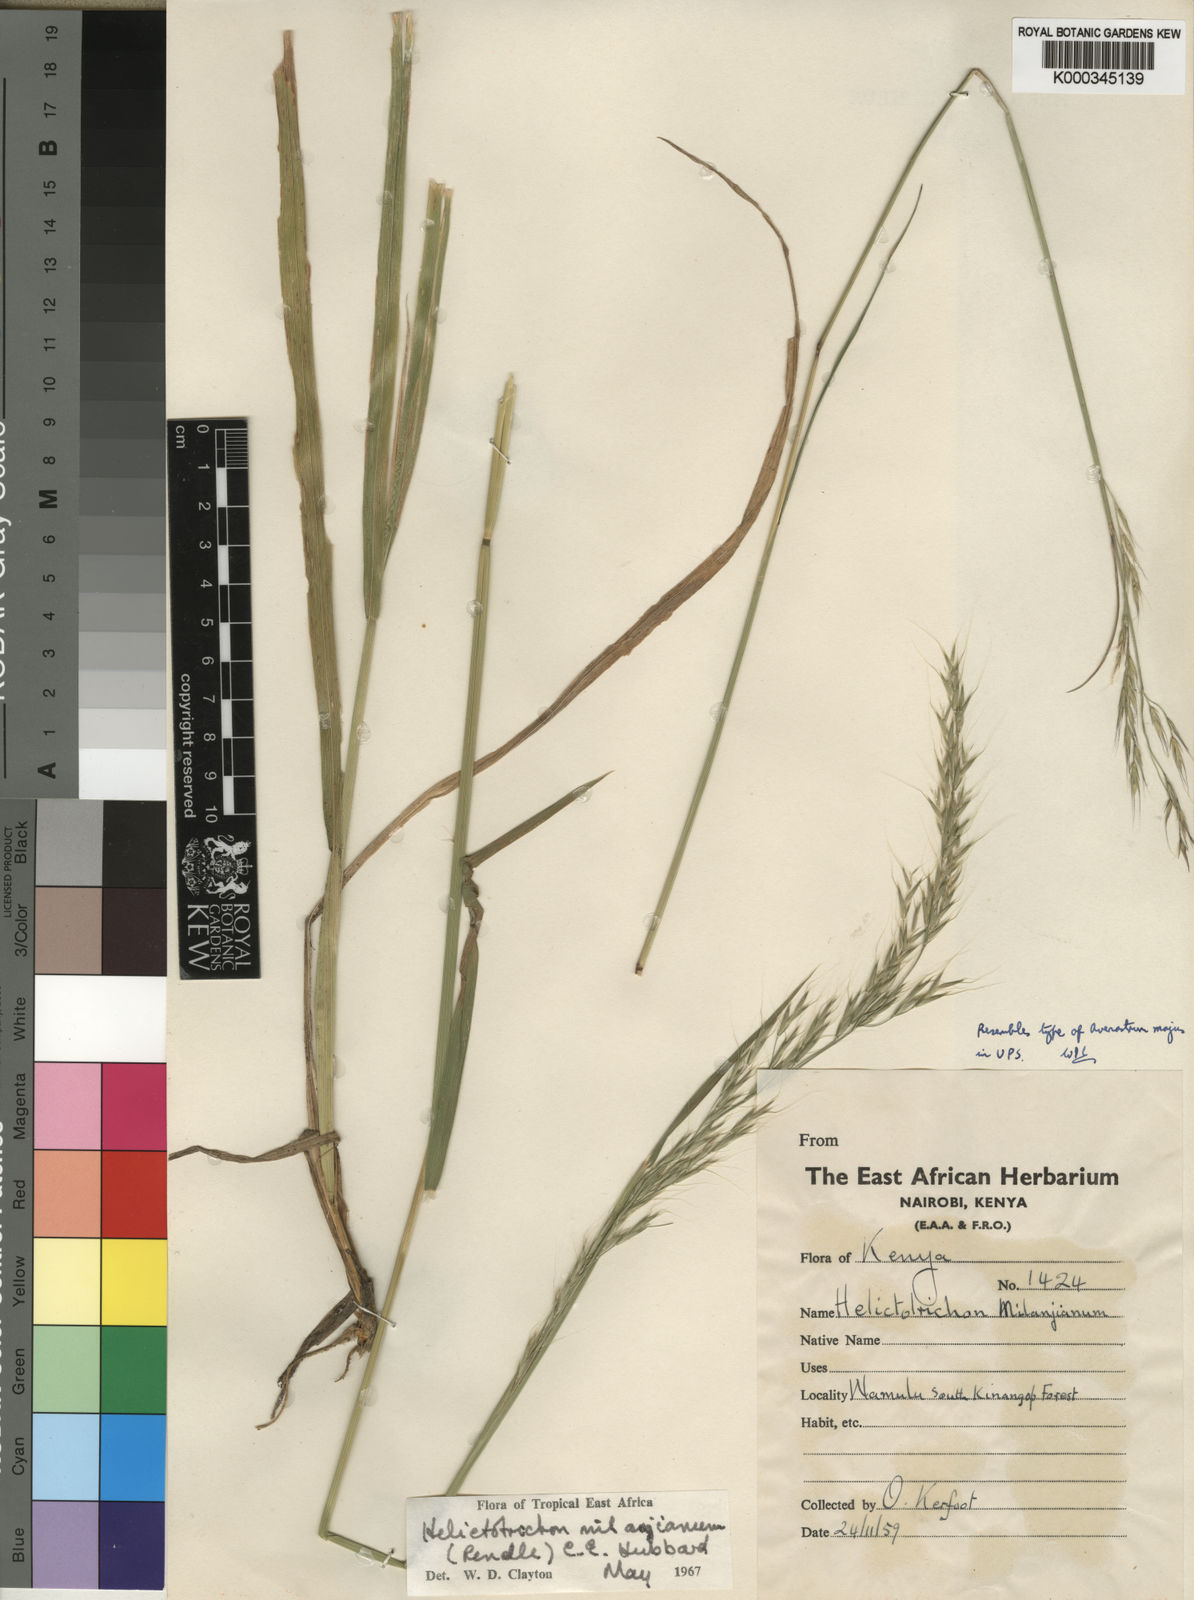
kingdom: Plantae
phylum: Tracheophyta
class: Liliopsida
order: Poales
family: Poaceae
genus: Trisetopsis
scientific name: Trisetopsis milanjiana
